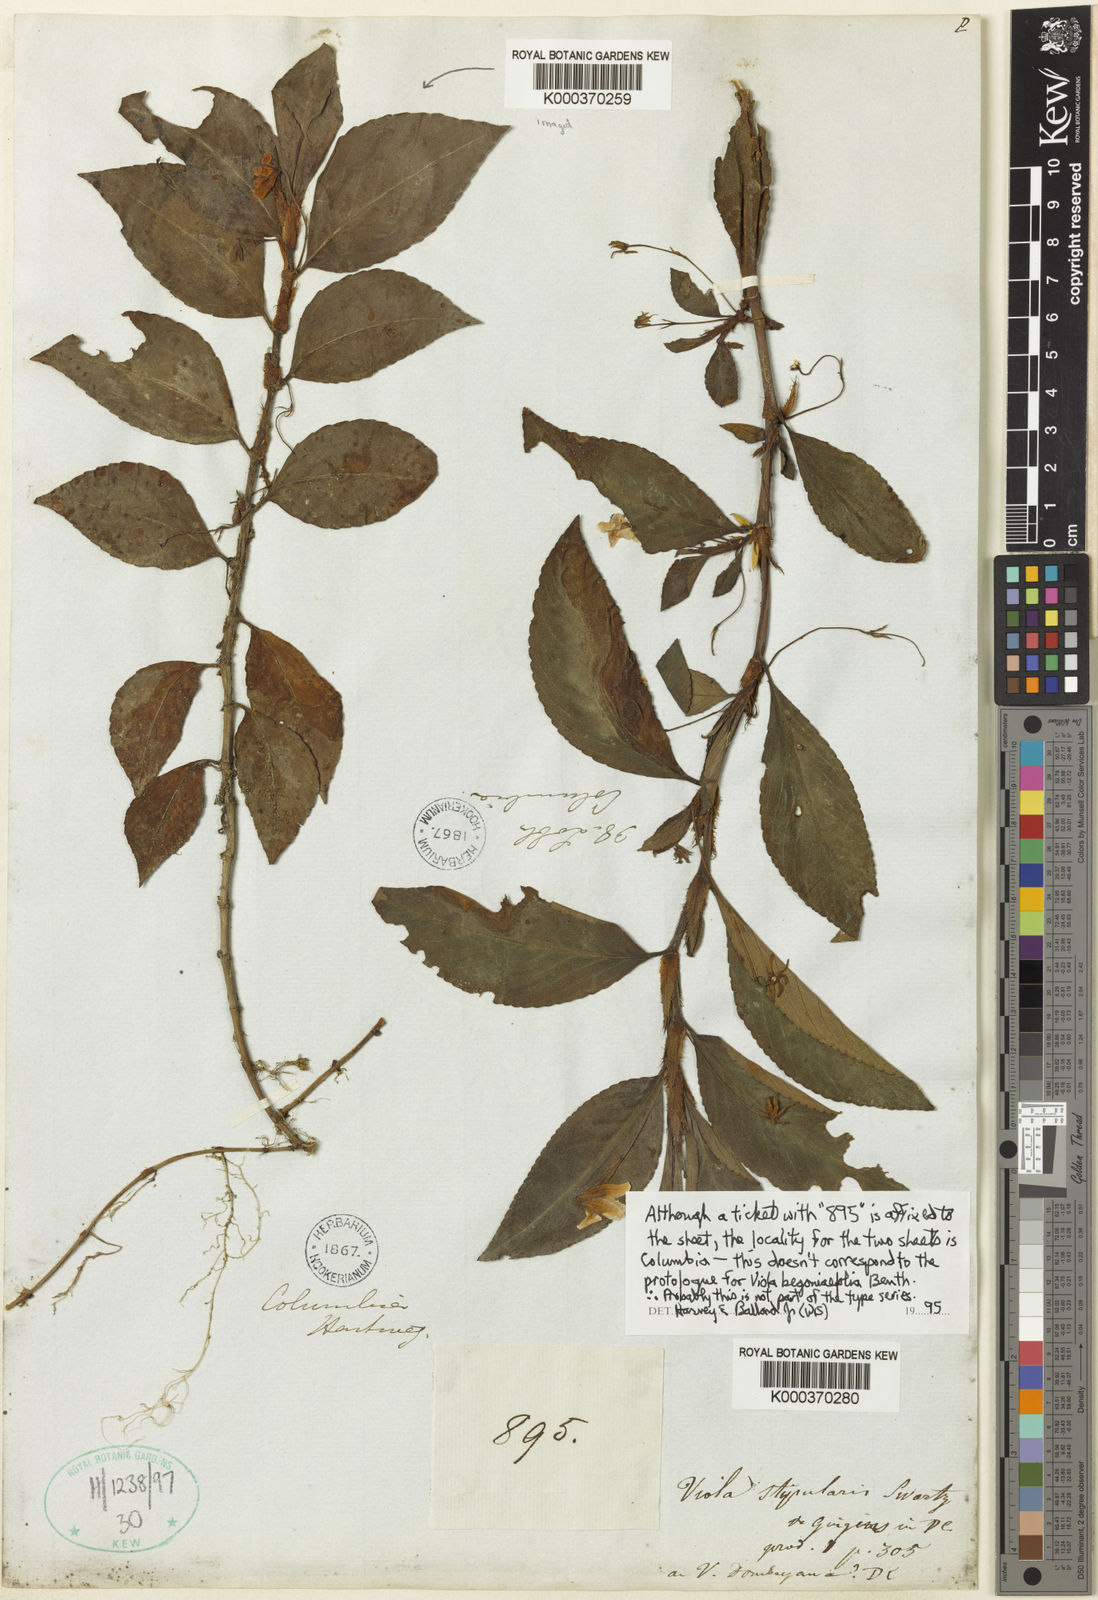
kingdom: Plantae
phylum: Tracheophyta
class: Magnoliopsida
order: Malpighiales
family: Violaceae
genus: Viola
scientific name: Viola stipularis
